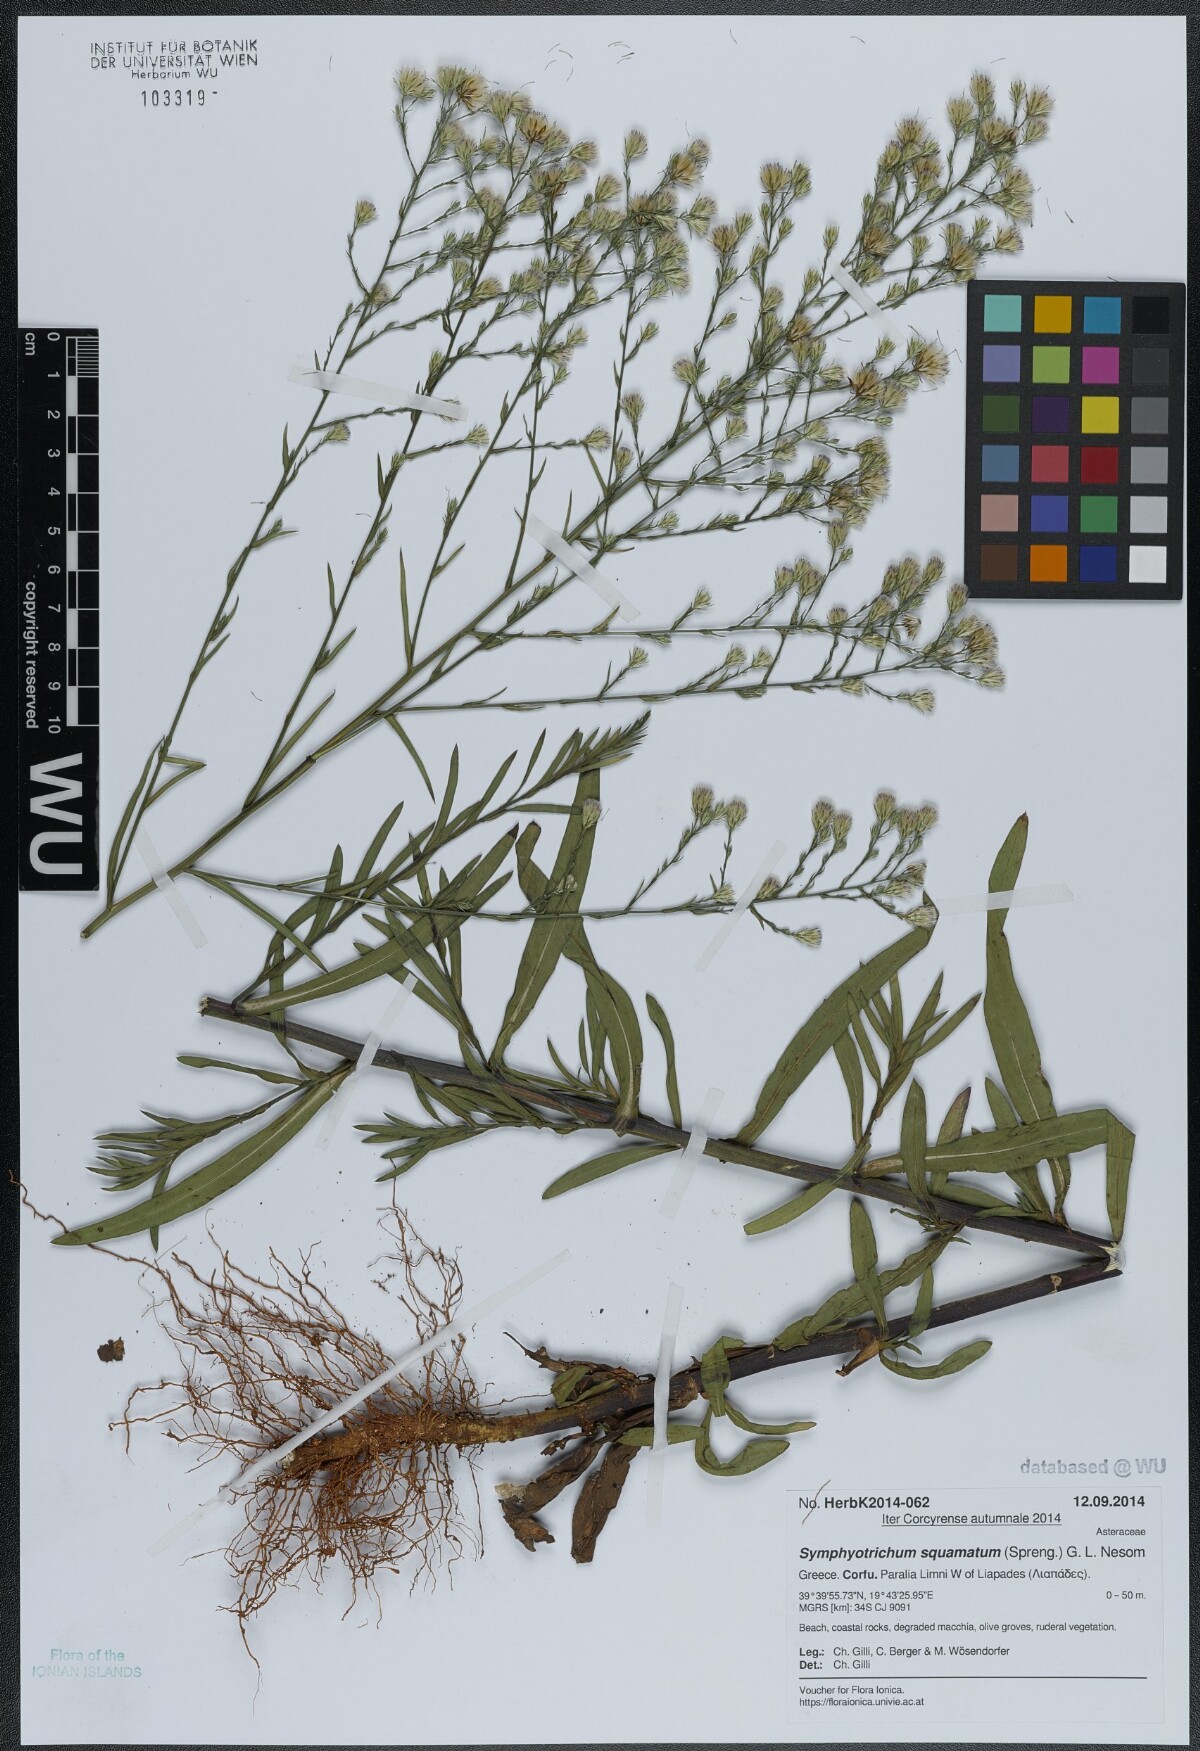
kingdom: Plantae
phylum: Tracheophyta
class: Magnoliopsida
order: Asterales
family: Asteraceae
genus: Symphyotrichum
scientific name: Symphyotrichum squamatum
